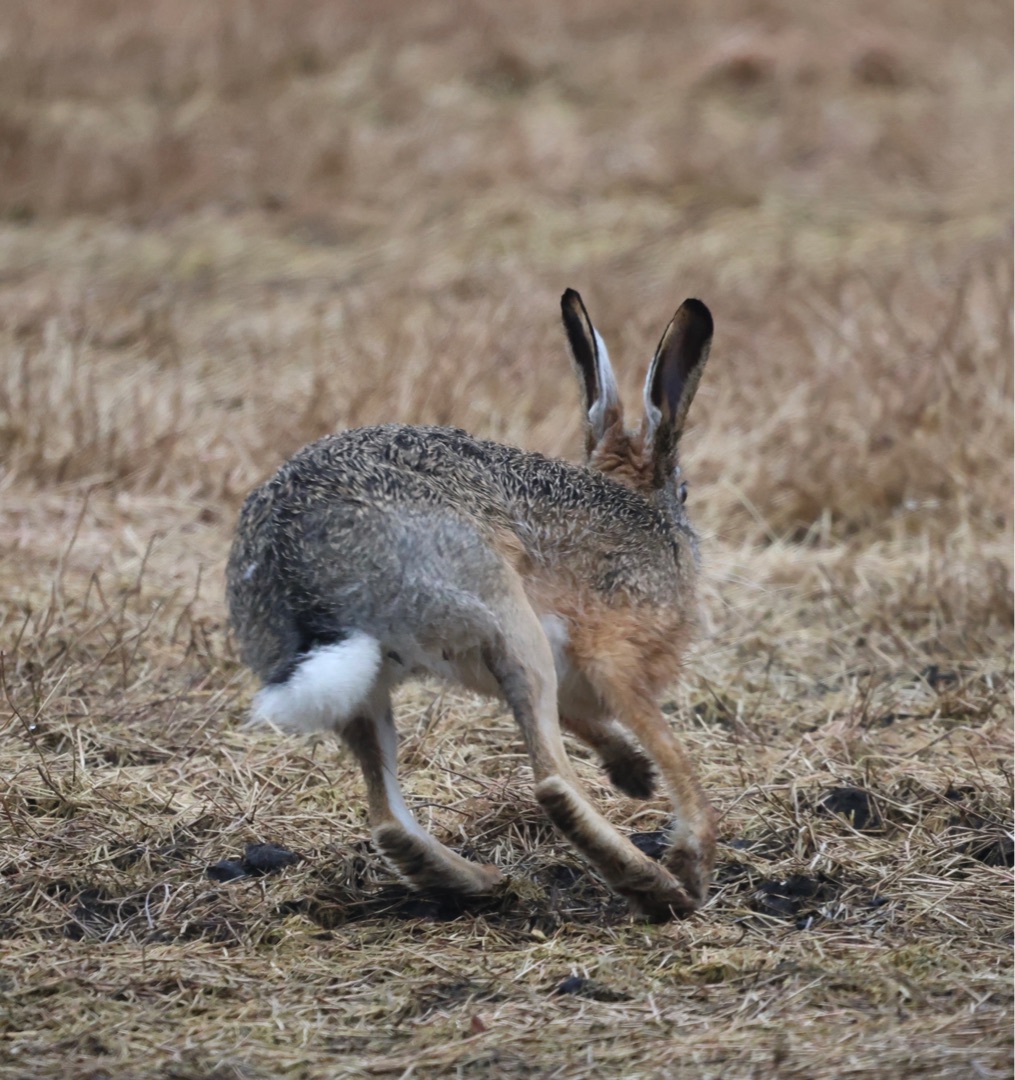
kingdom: Animalia
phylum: Chordata
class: Mammalia
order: Lagomorpha
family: Leporidae
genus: Lepus
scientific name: Lepus europaeus
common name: Hare
